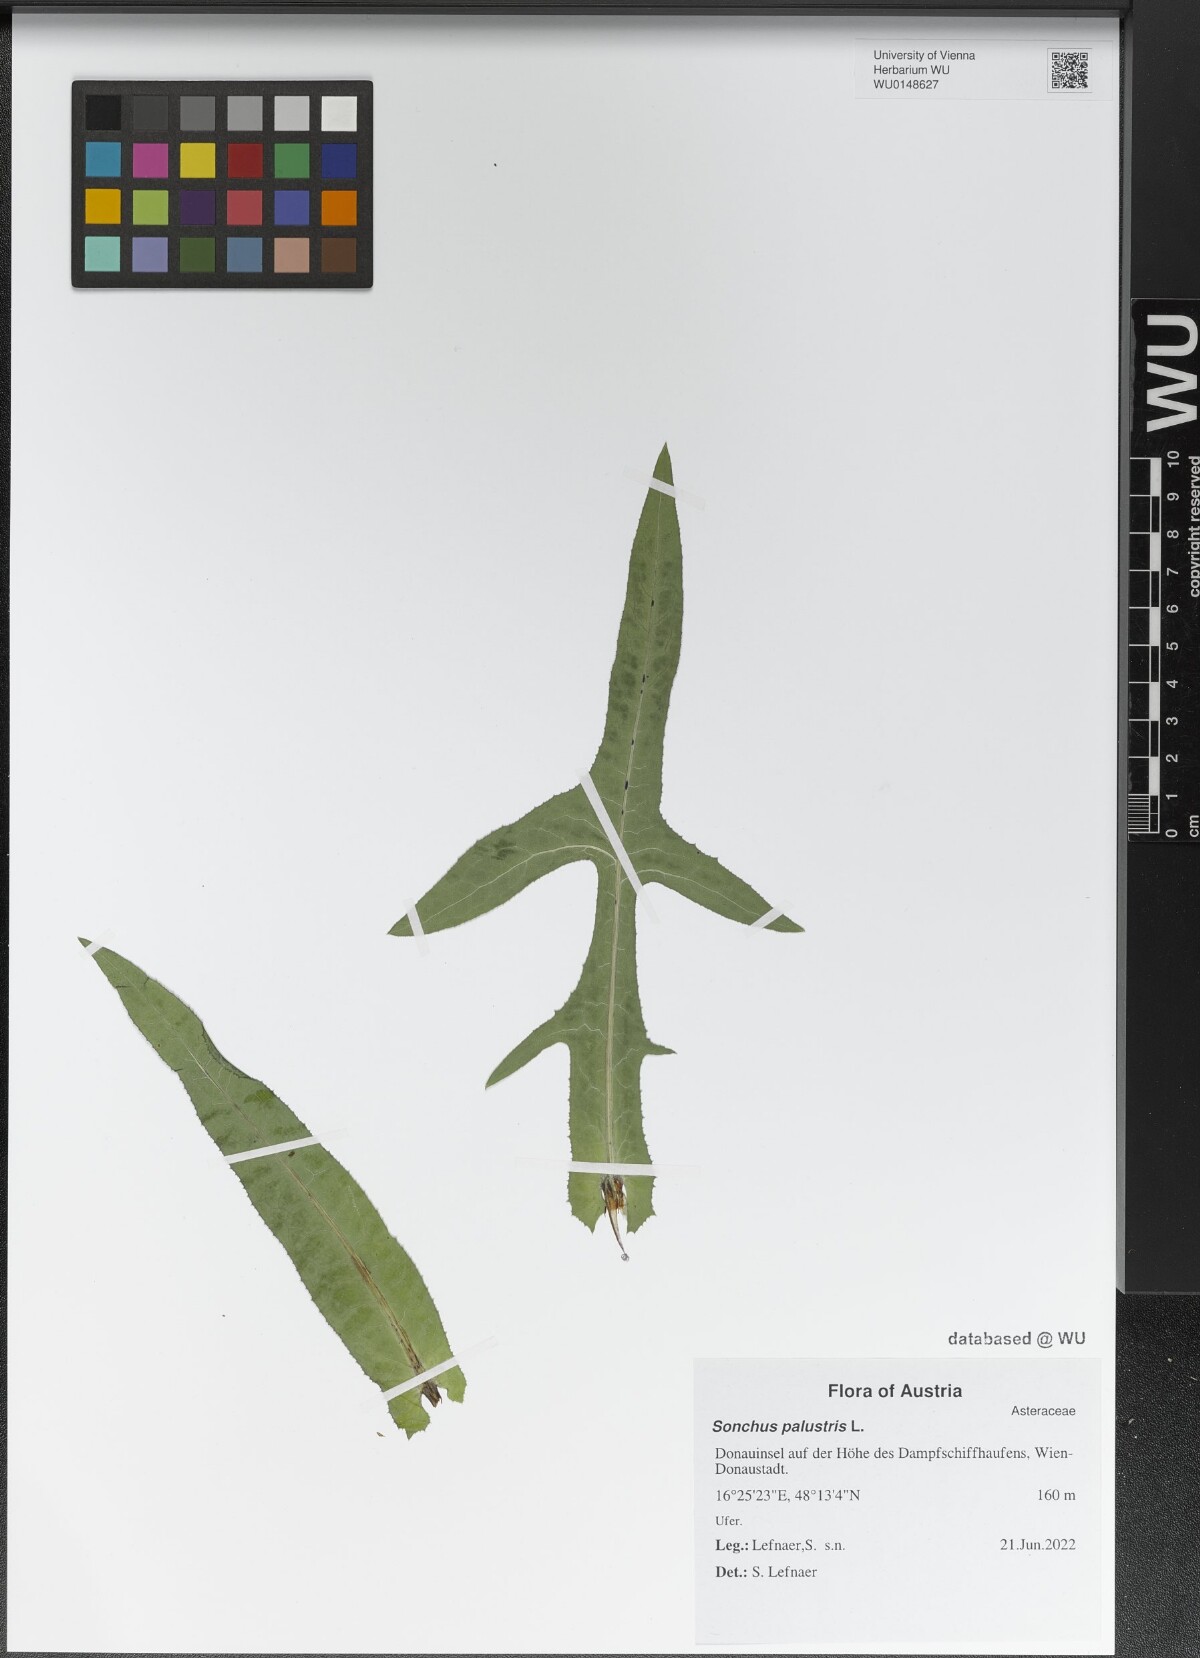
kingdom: Plantae
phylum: Tracheophyta
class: Magnoliopsida
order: Asterales
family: Asteraceae
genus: Sonchus
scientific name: Sonchus palustris
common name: Marsh sow-thistle
